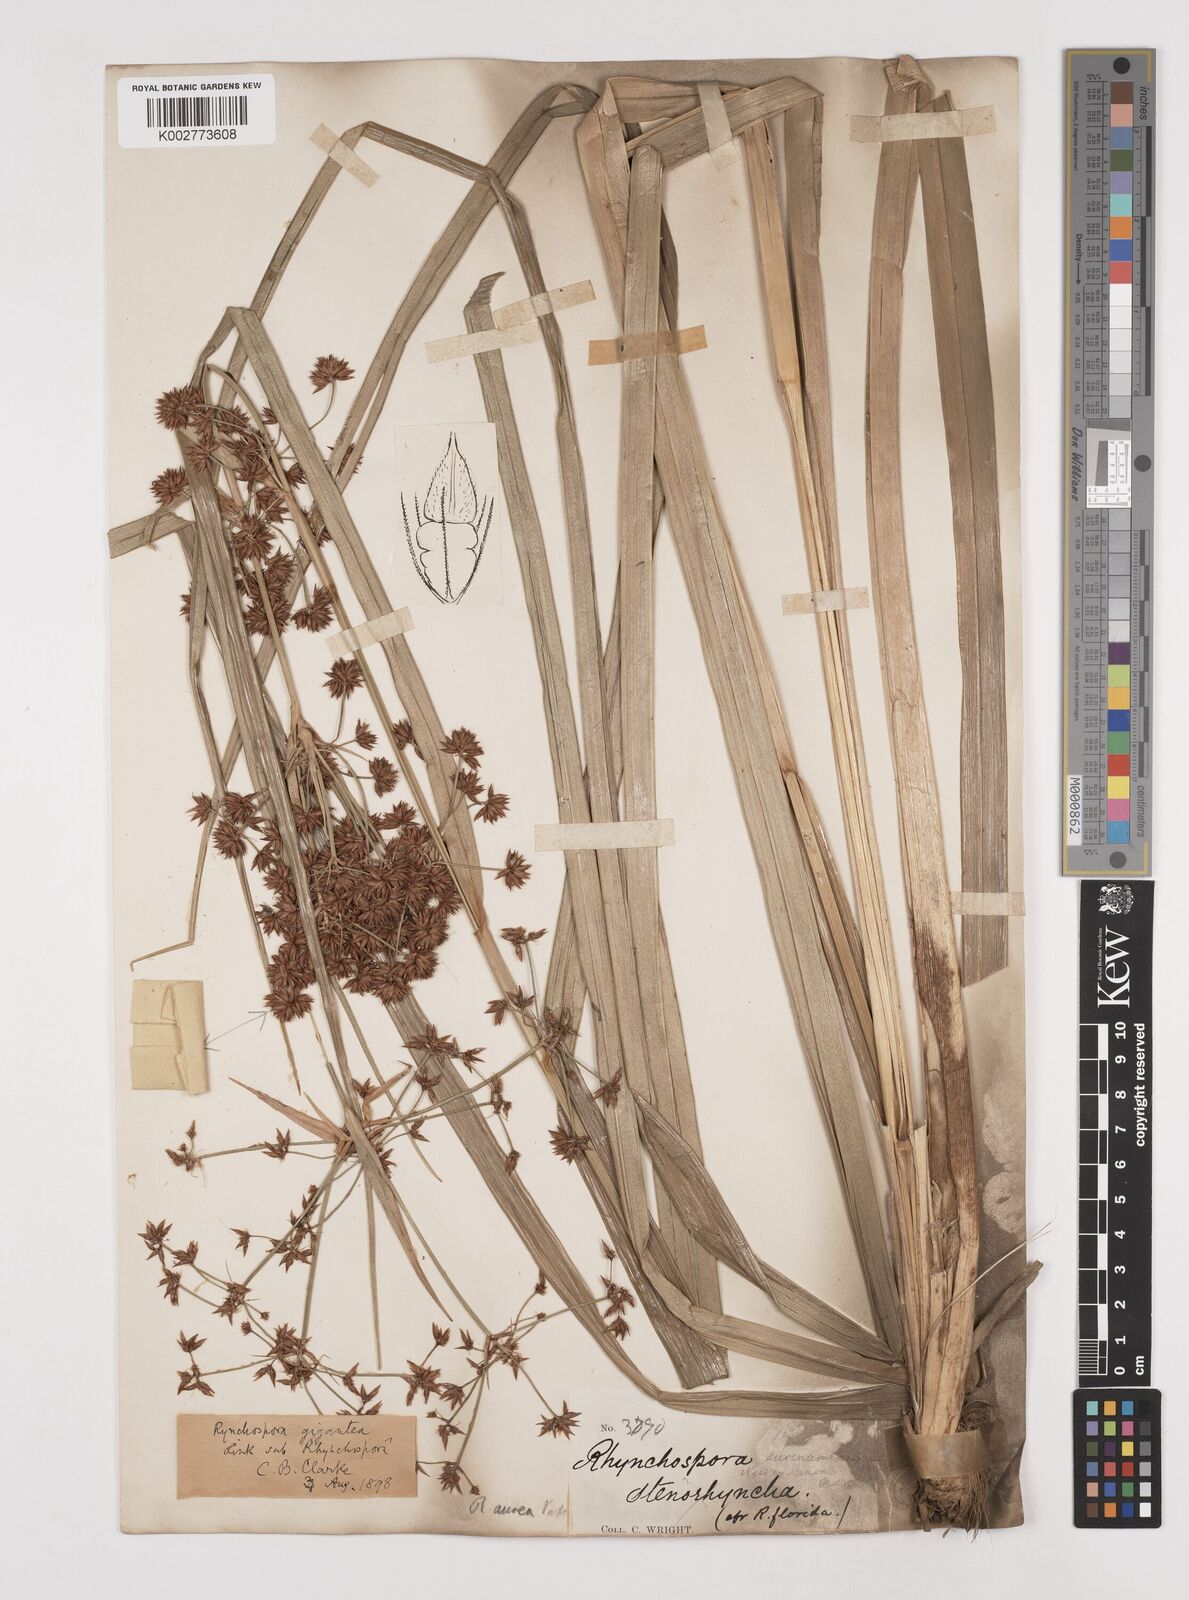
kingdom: Plantae
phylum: Tracheophyta
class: Liliopsida
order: Poales
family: Cyperaceae
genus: Rhynchospora
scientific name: Rhynchospora gigantea
